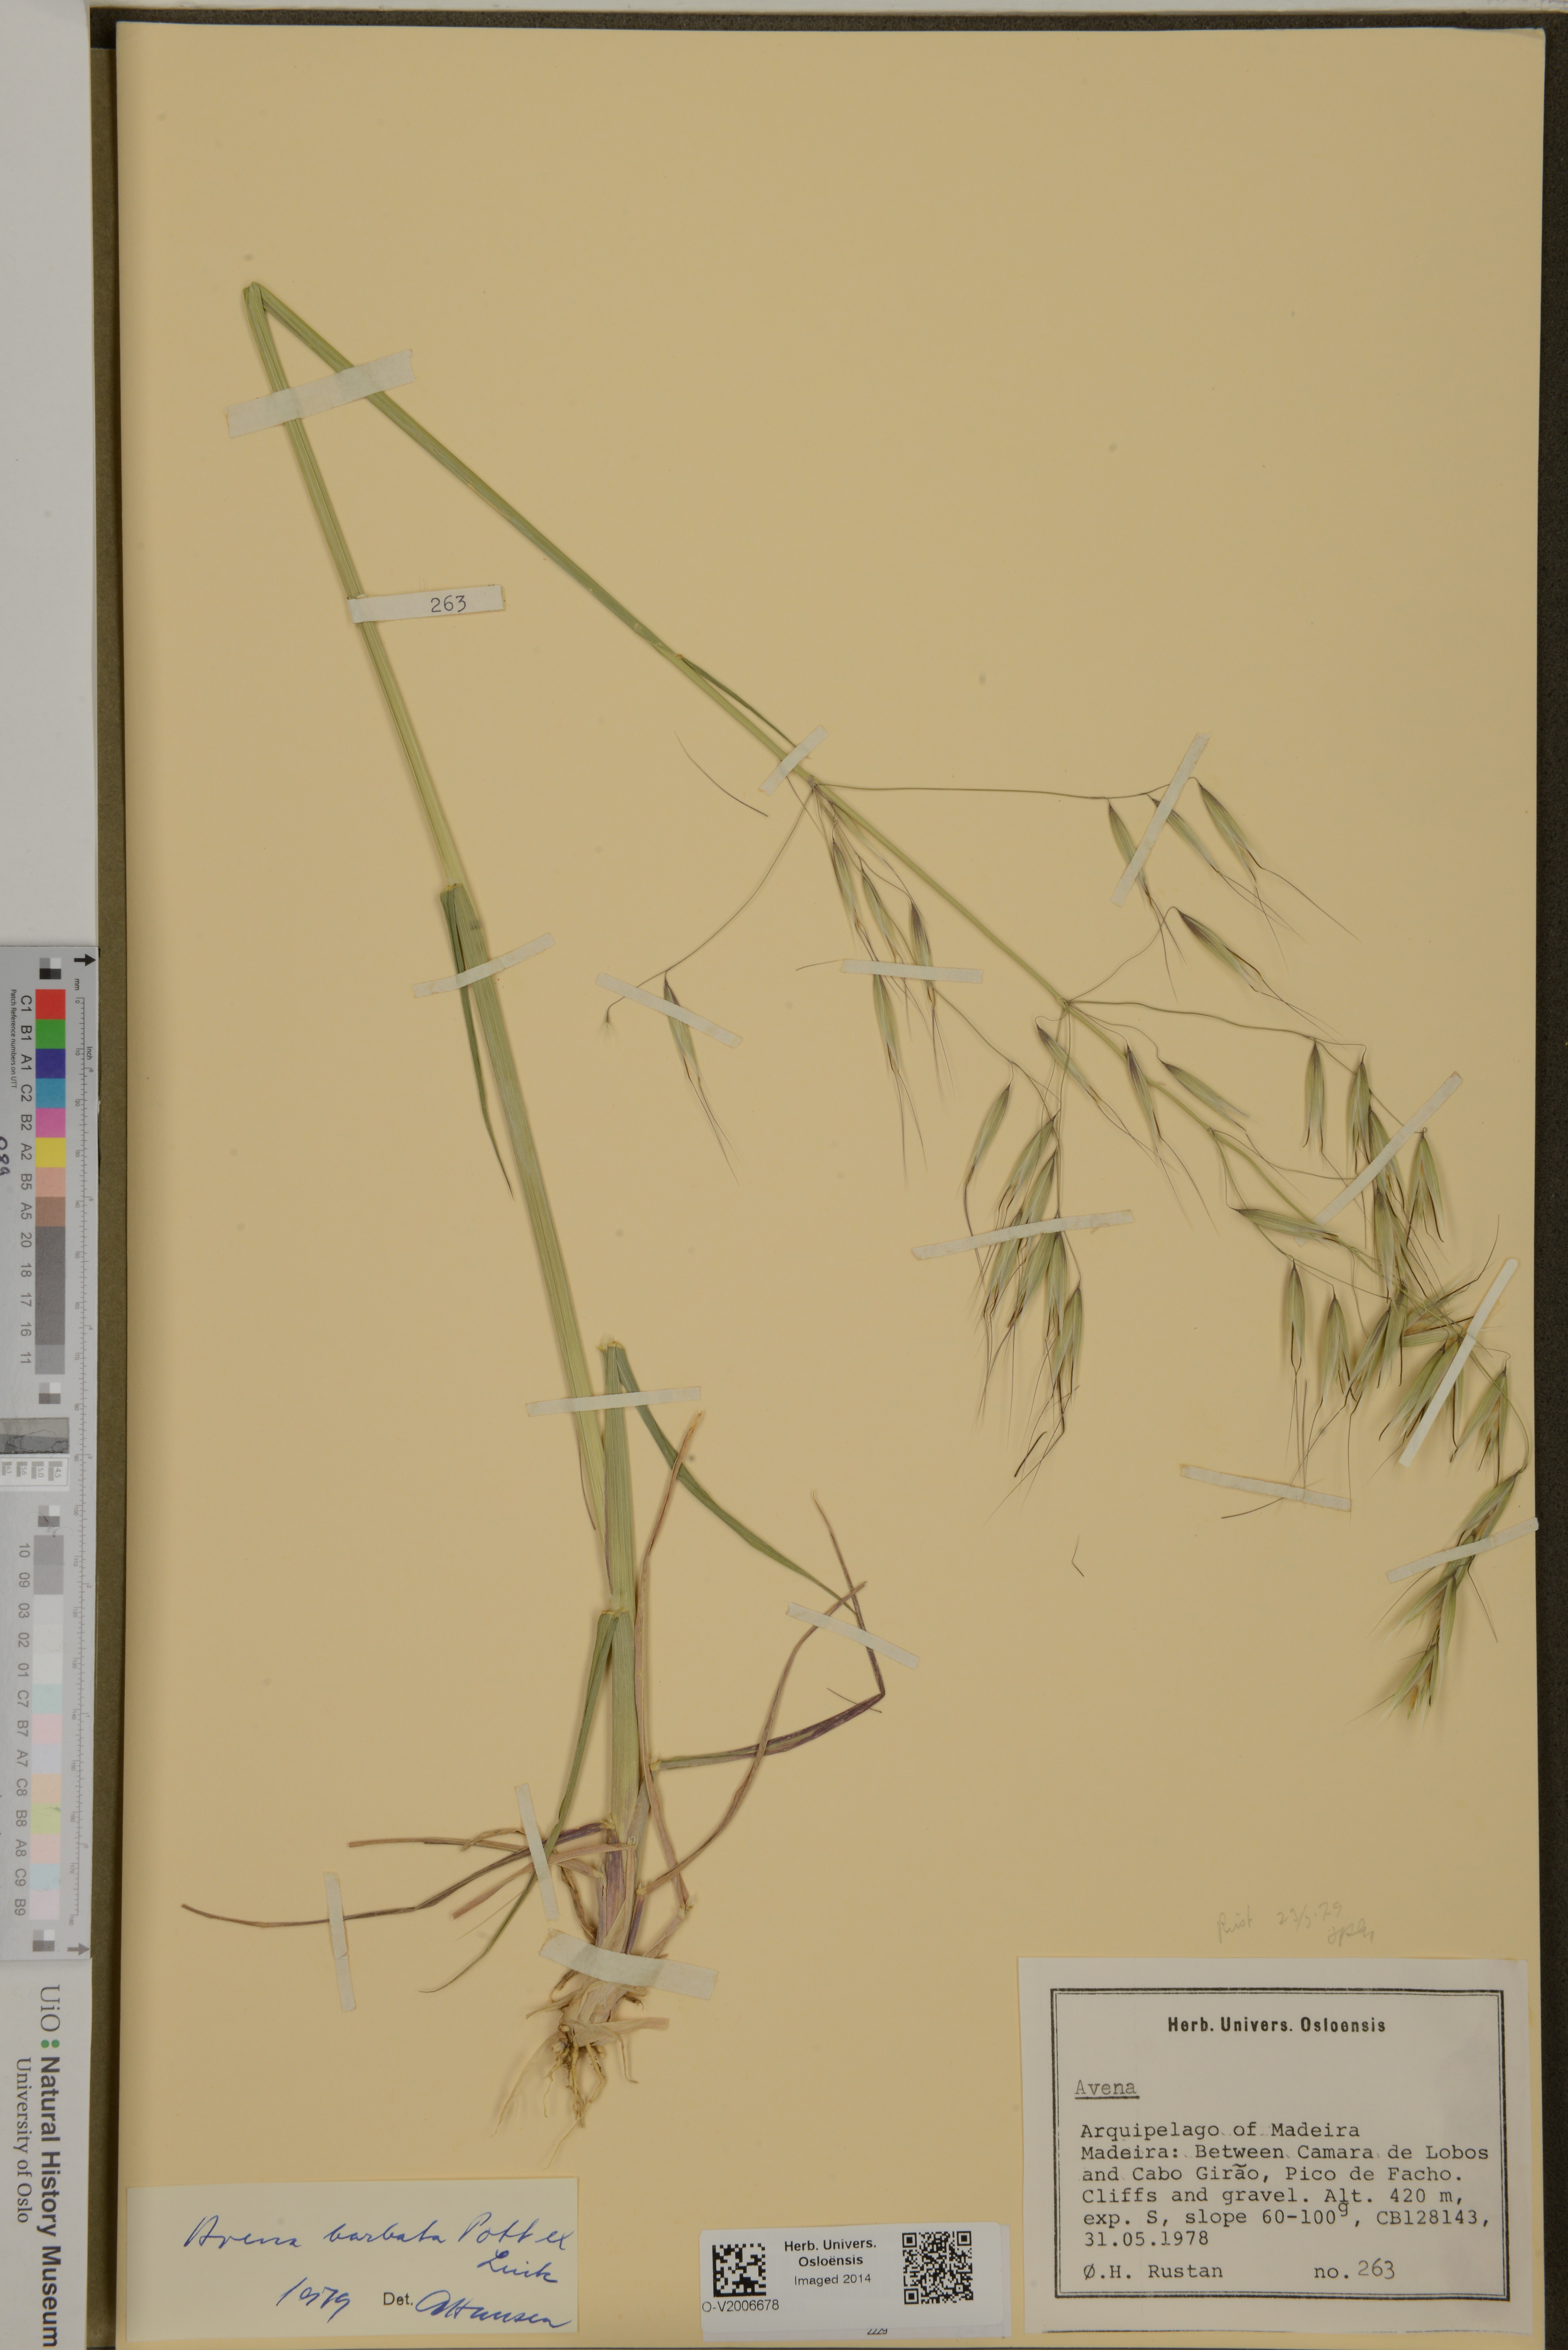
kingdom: Plantae
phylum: Tracheophyta
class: Liliopsida
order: Poales
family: Poaceae
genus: Avena
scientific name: Avena barbata
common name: Slender oat
